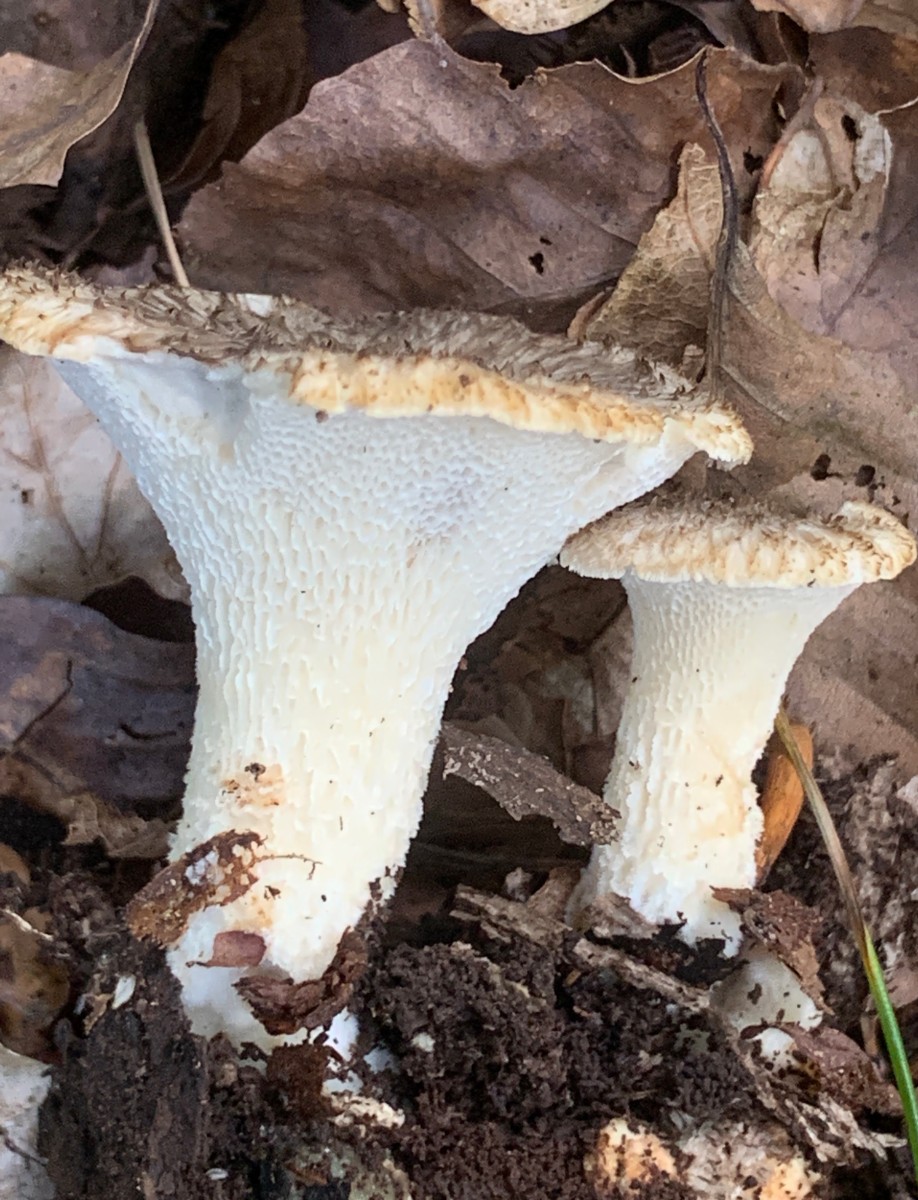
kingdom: Fungi
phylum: Basidiomycota
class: Agaricomycetes
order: Polyporales
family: Polyporaceae
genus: Polyporus
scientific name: Polyporus tuberaster
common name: knoldet stilkporesvamp
